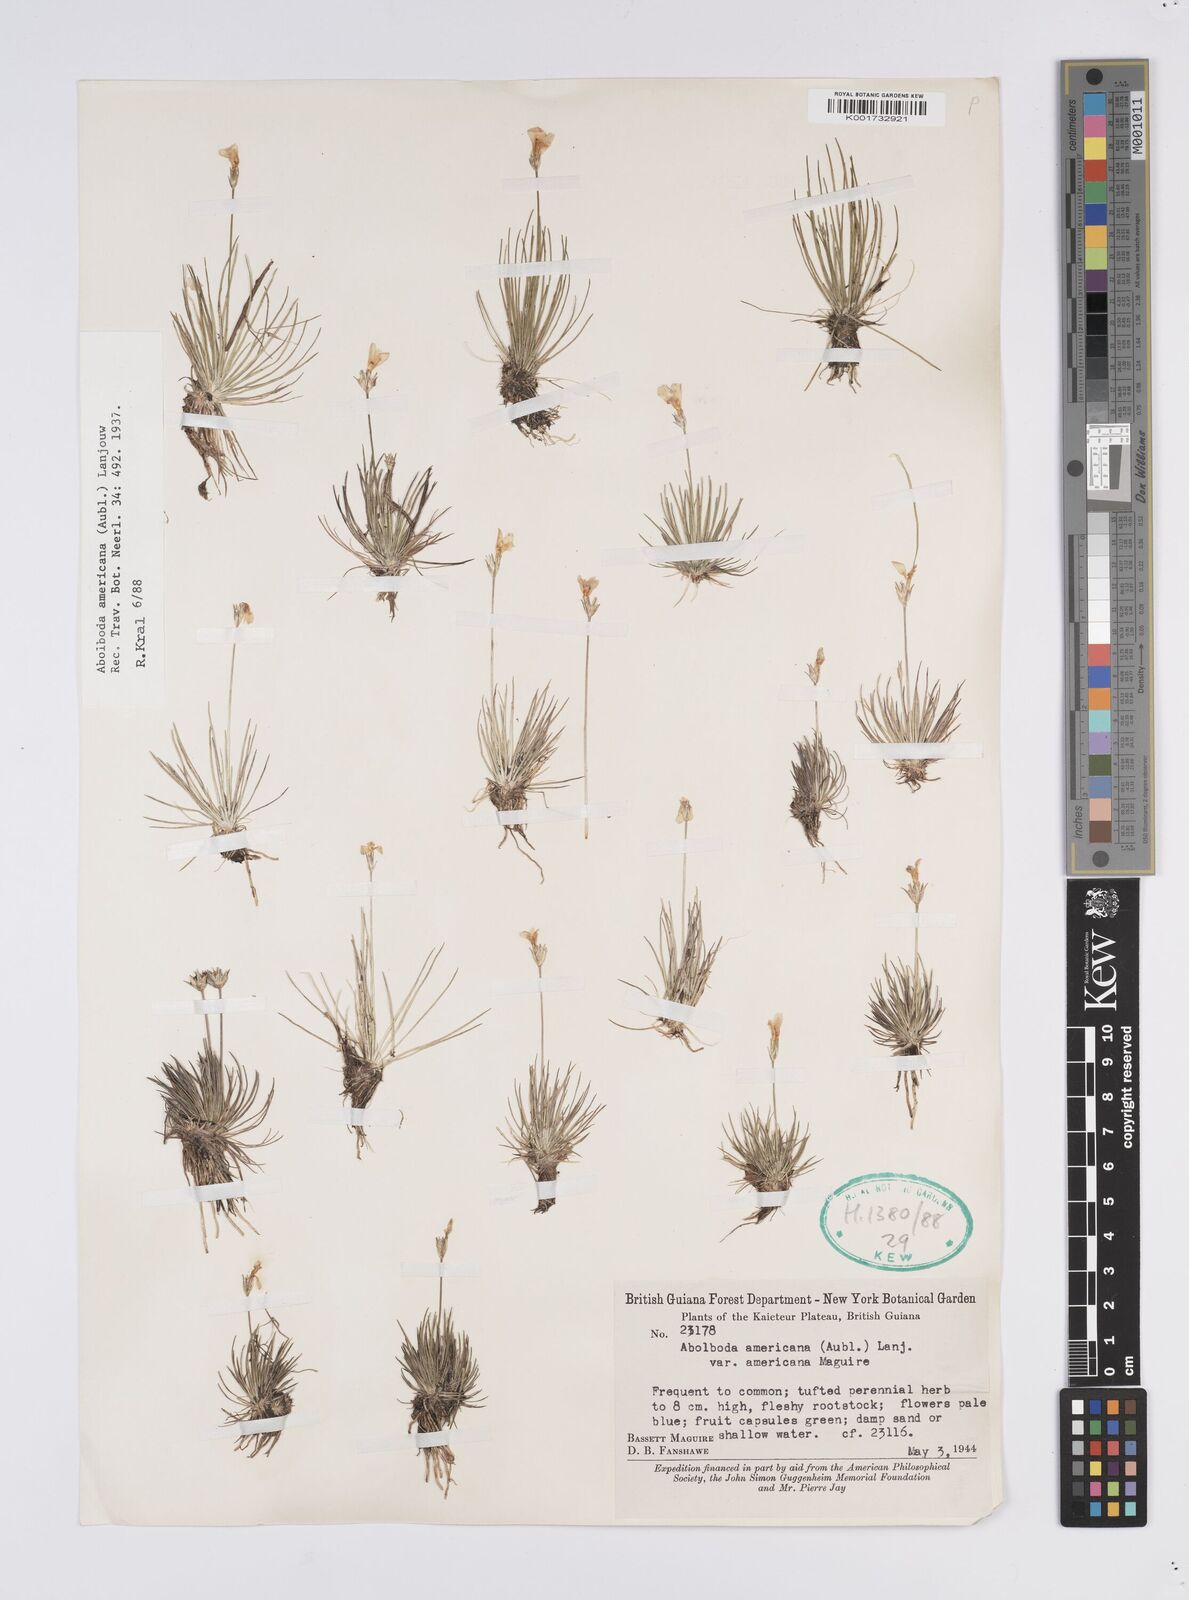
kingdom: Plantae
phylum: Tracheophyta
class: Liliopsida
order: Poales
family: Xyridaceae
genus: Abolboda
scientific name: Abolboda americana
